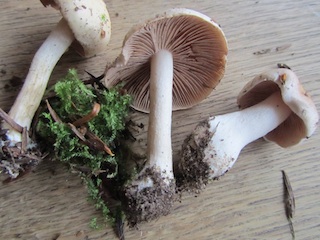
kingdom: Fungi
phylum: Basidiomycota
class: Agaricomycetes
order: Agaricales
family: Hymenogastraceae
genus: Hebeloma
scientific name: Hebeloma leucosarx
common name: højstokket tåreblad
